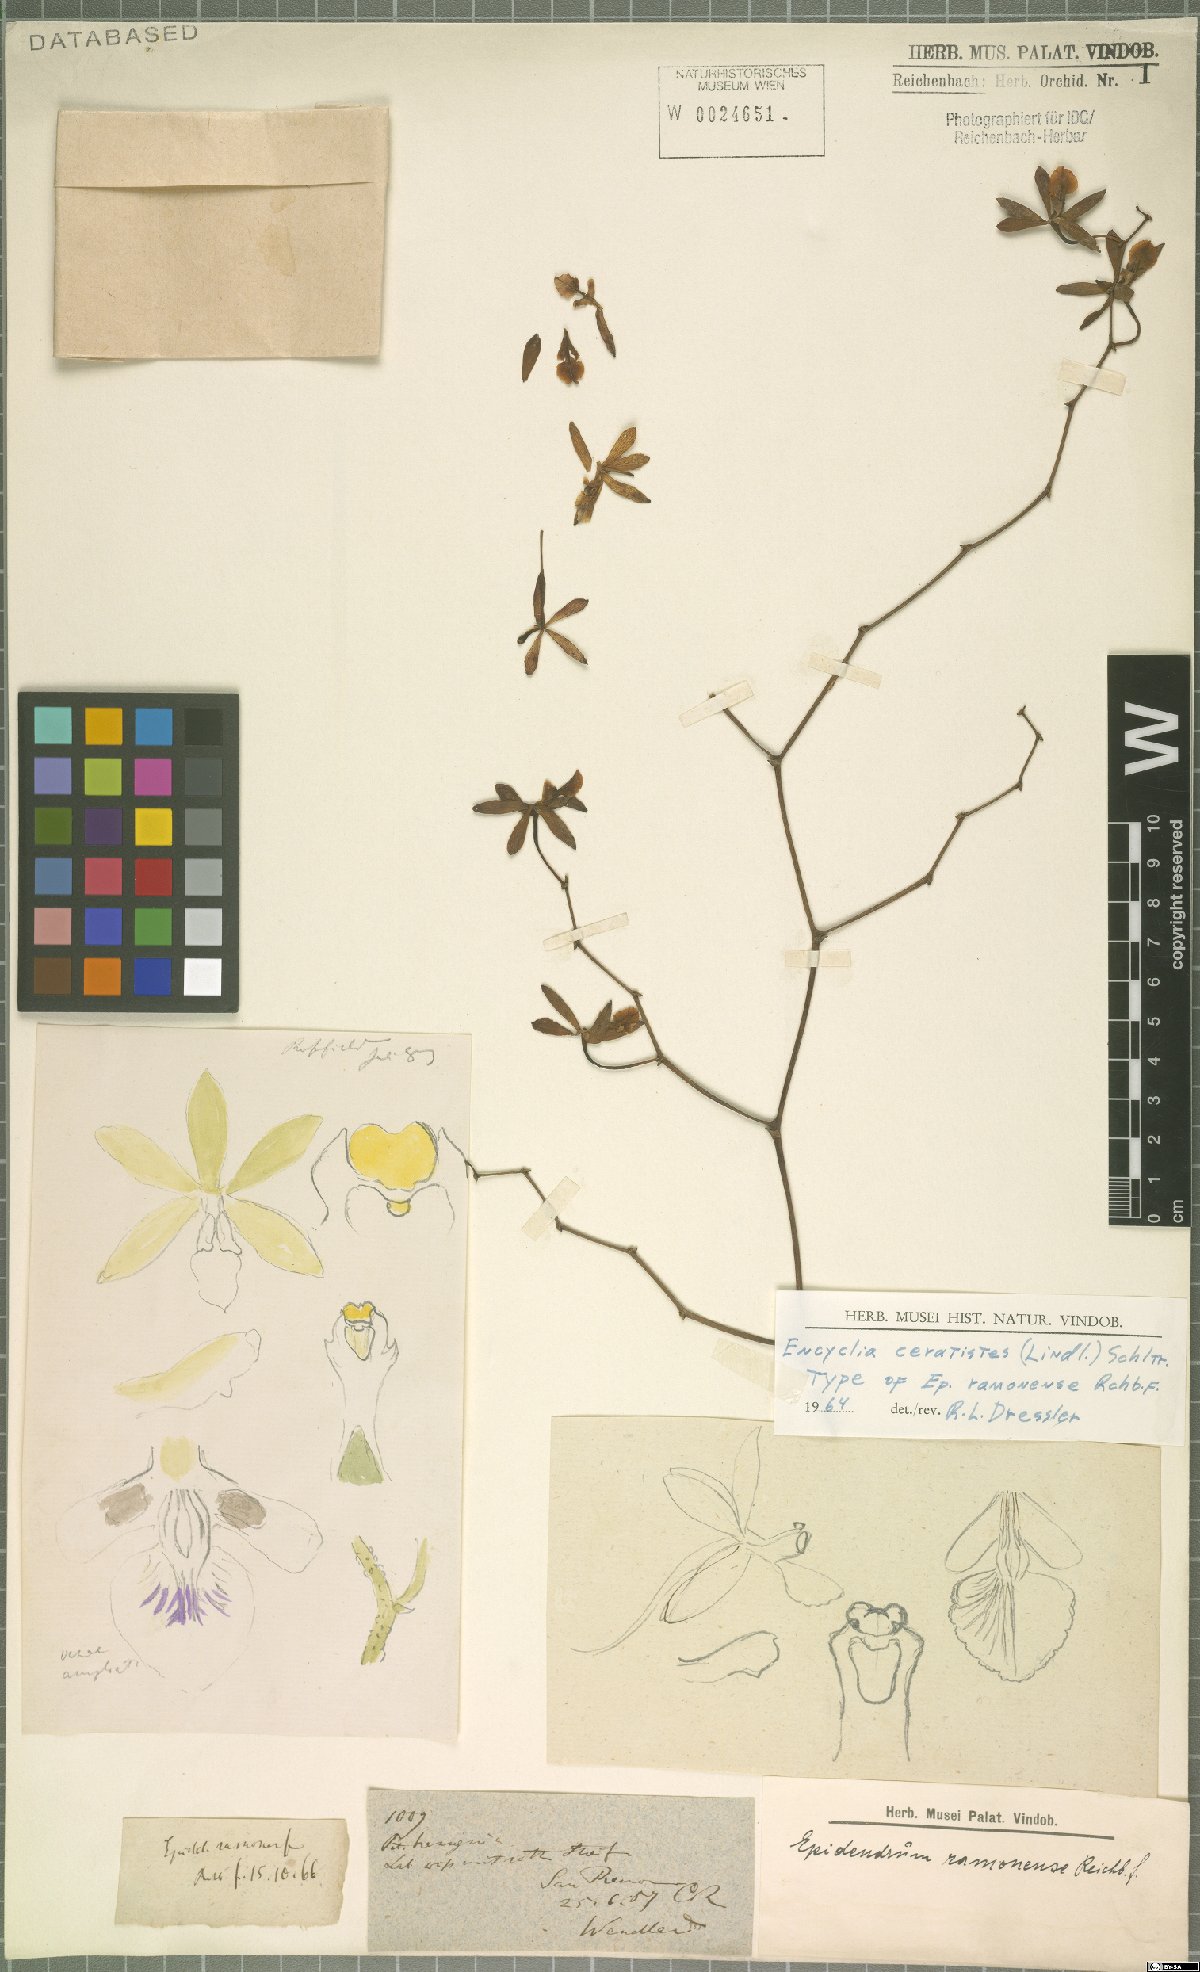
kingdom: Plantae
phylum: Tracheophyta
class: Liliopsida
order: Asparagales
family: Orchidaceae
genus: Encyclia
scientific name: Encyclia ceratistes
